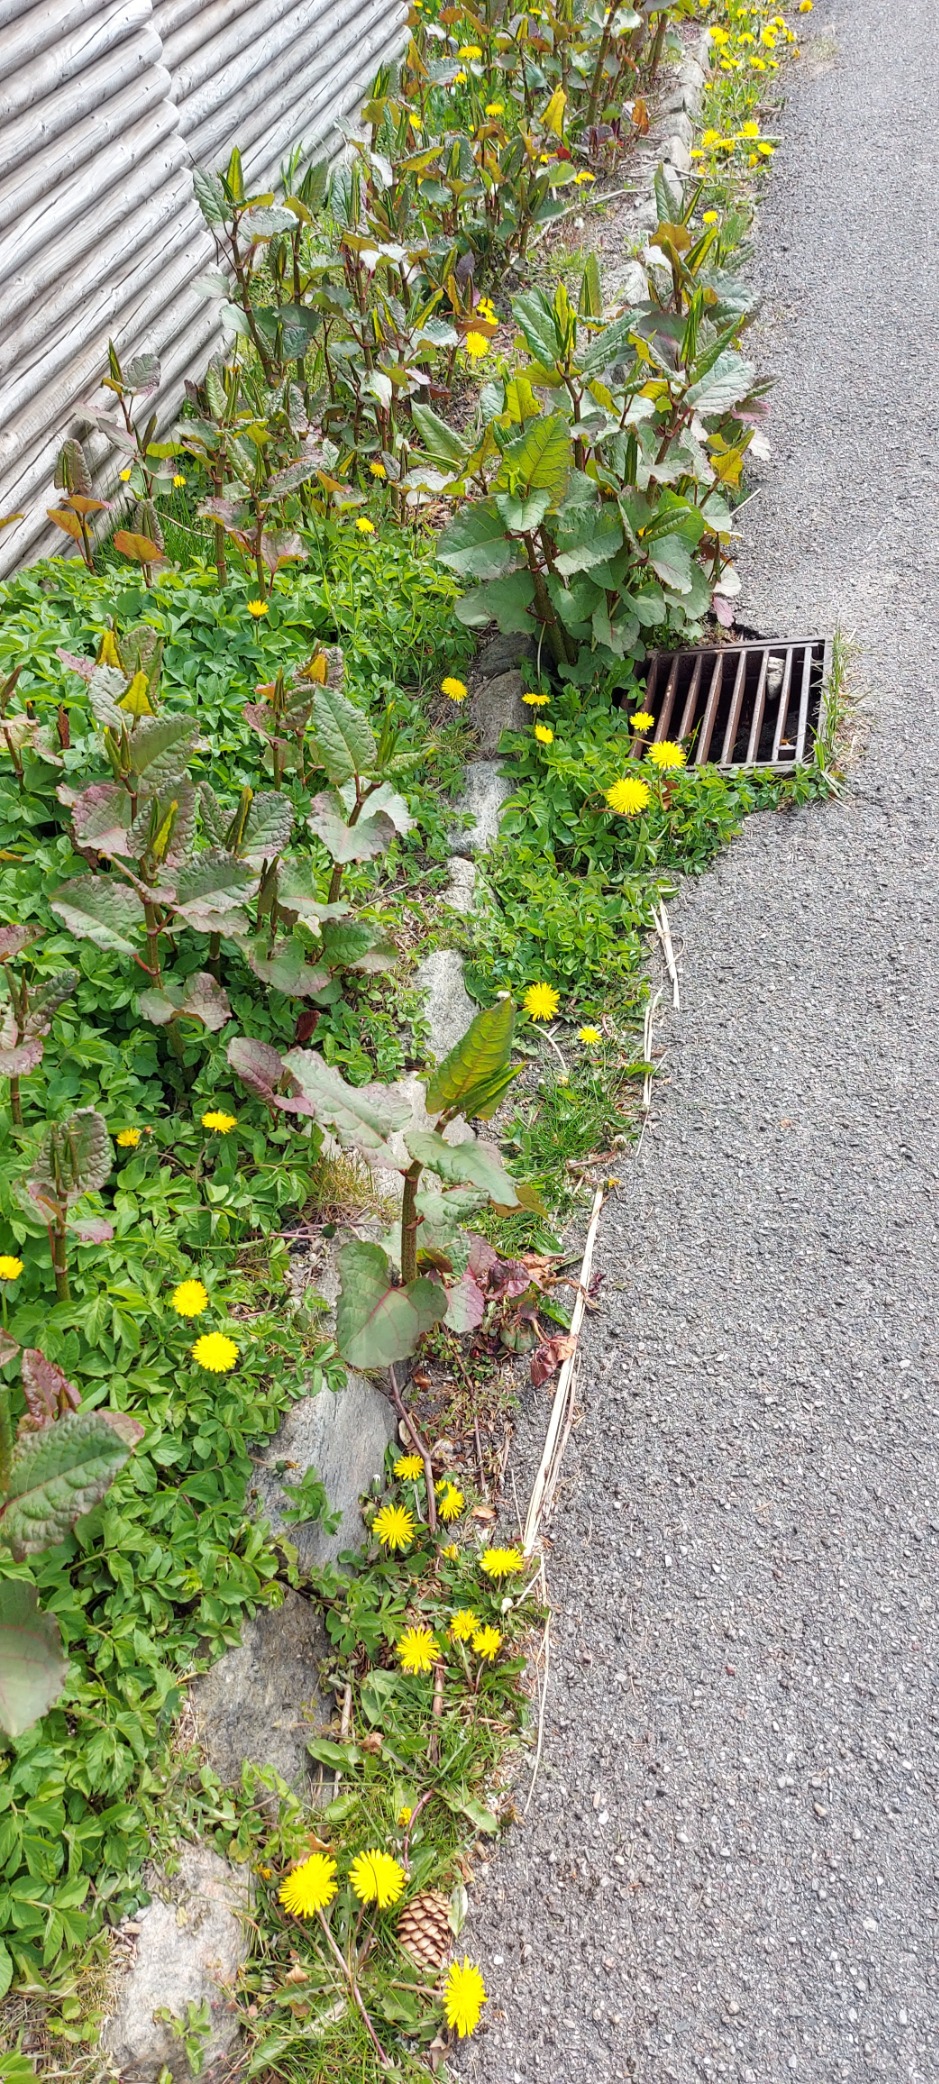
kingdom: Plantae
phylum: Tracheophyta
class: Magnoliopsida
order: Caryophyllales
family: Polygonaceae
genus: Reynoutria
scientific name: Reynoutria sachalinensis
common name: Kæmpe-pileurt
